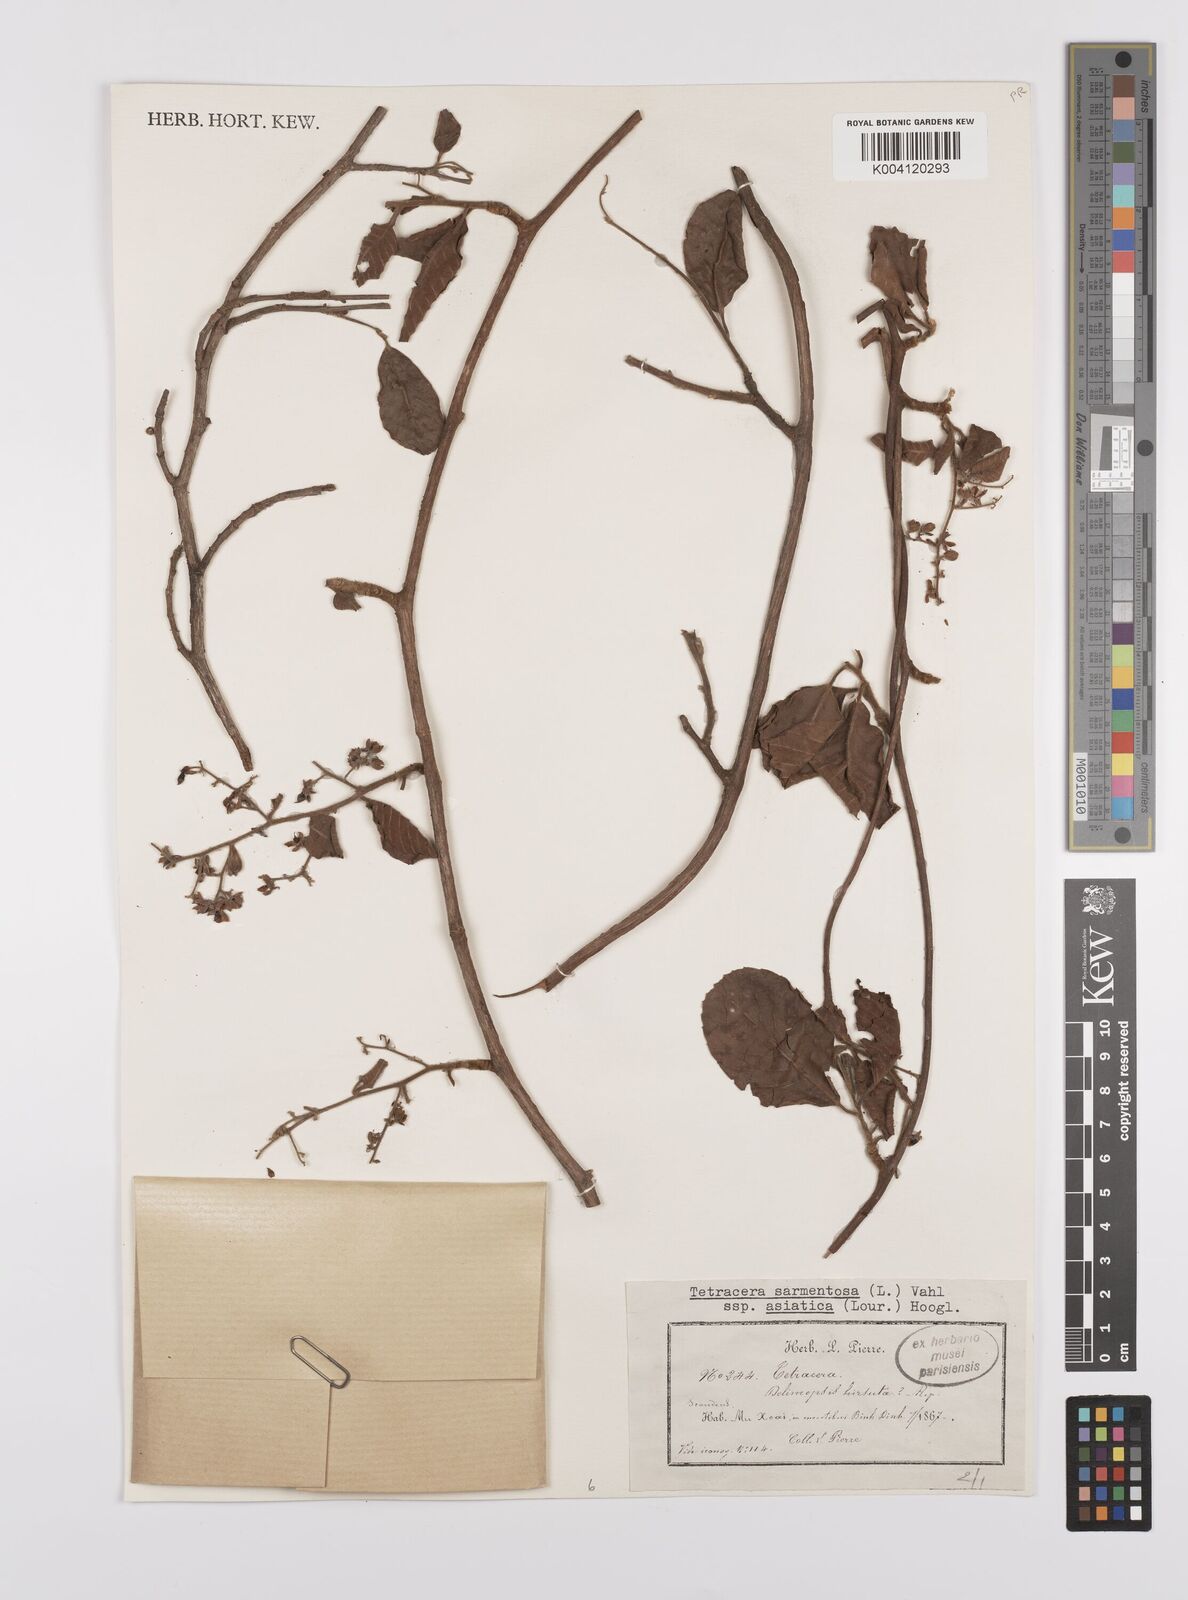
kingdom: Plantae
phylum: Tracheophyta
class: Magnoliopsida
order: Dilleniales
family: Dilleniaceae
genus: Tetracera
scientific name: Tetracera sarmentosa
